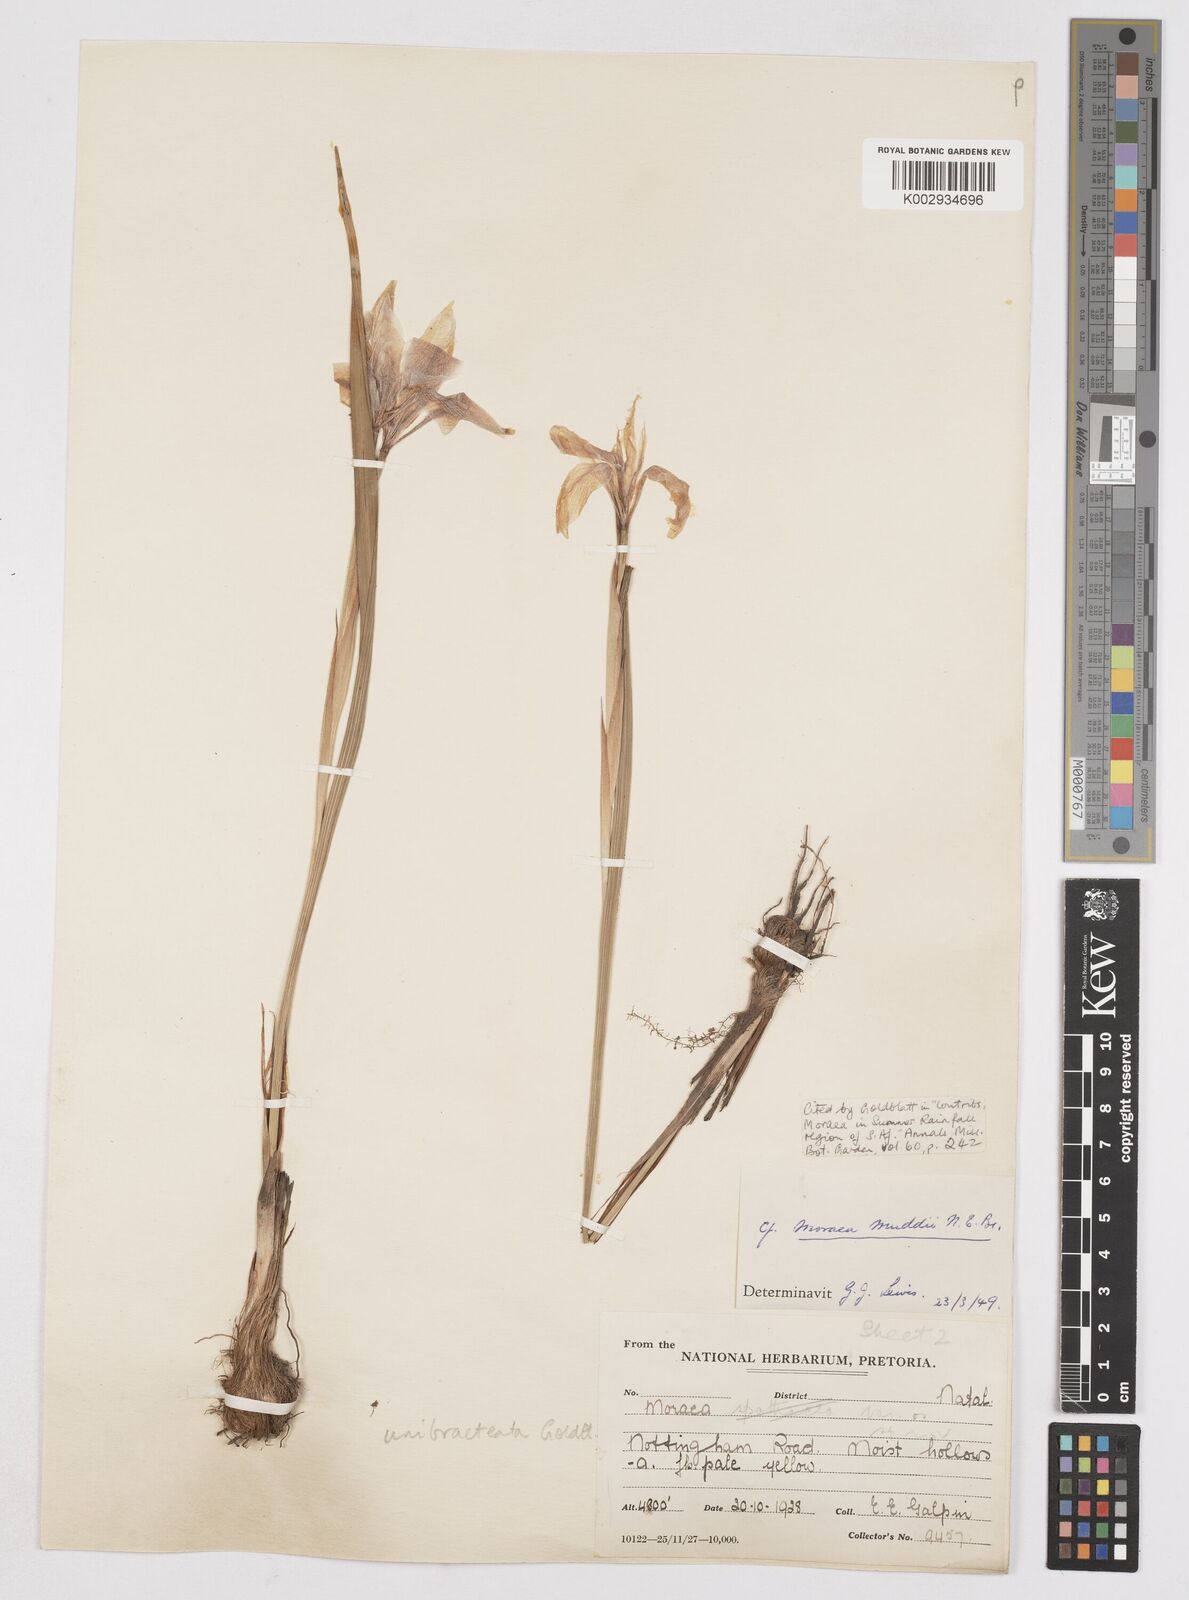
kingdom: Plantae
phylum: Tracheophyta
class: Liliopsida
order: Asparagales
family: Iridaceae
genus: Moraea
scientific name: Moraea unibracteata
